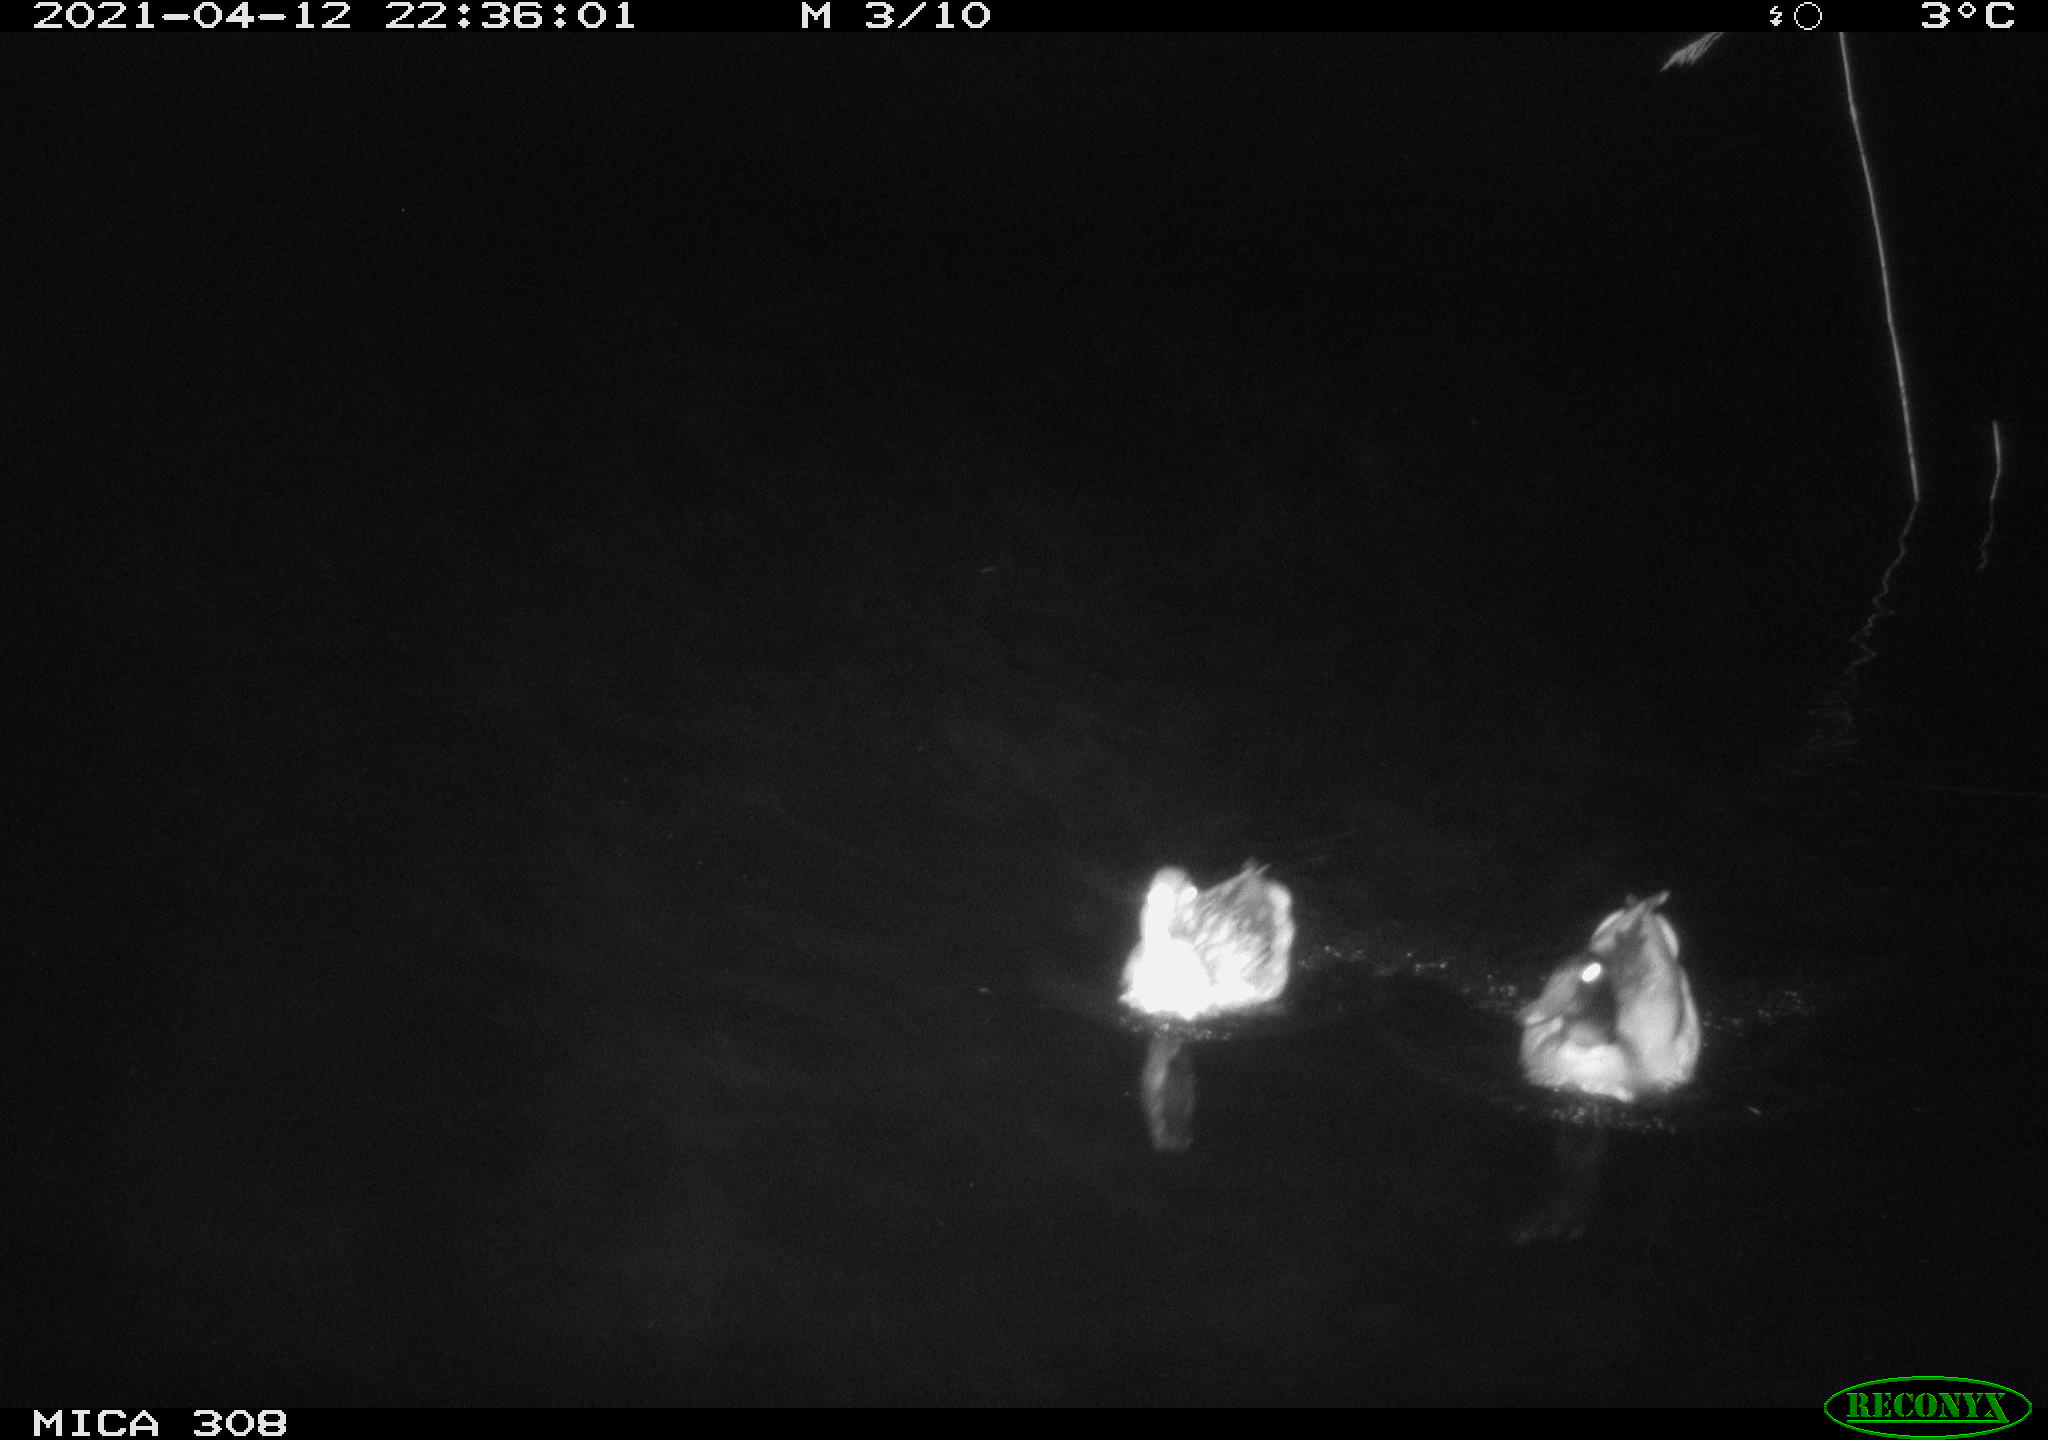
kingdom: Animalia
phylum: Chordata
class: Aves
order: Anseriformes
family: Anatidae
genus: Anas
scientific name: Anas platyrhynchos
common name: Mallard
